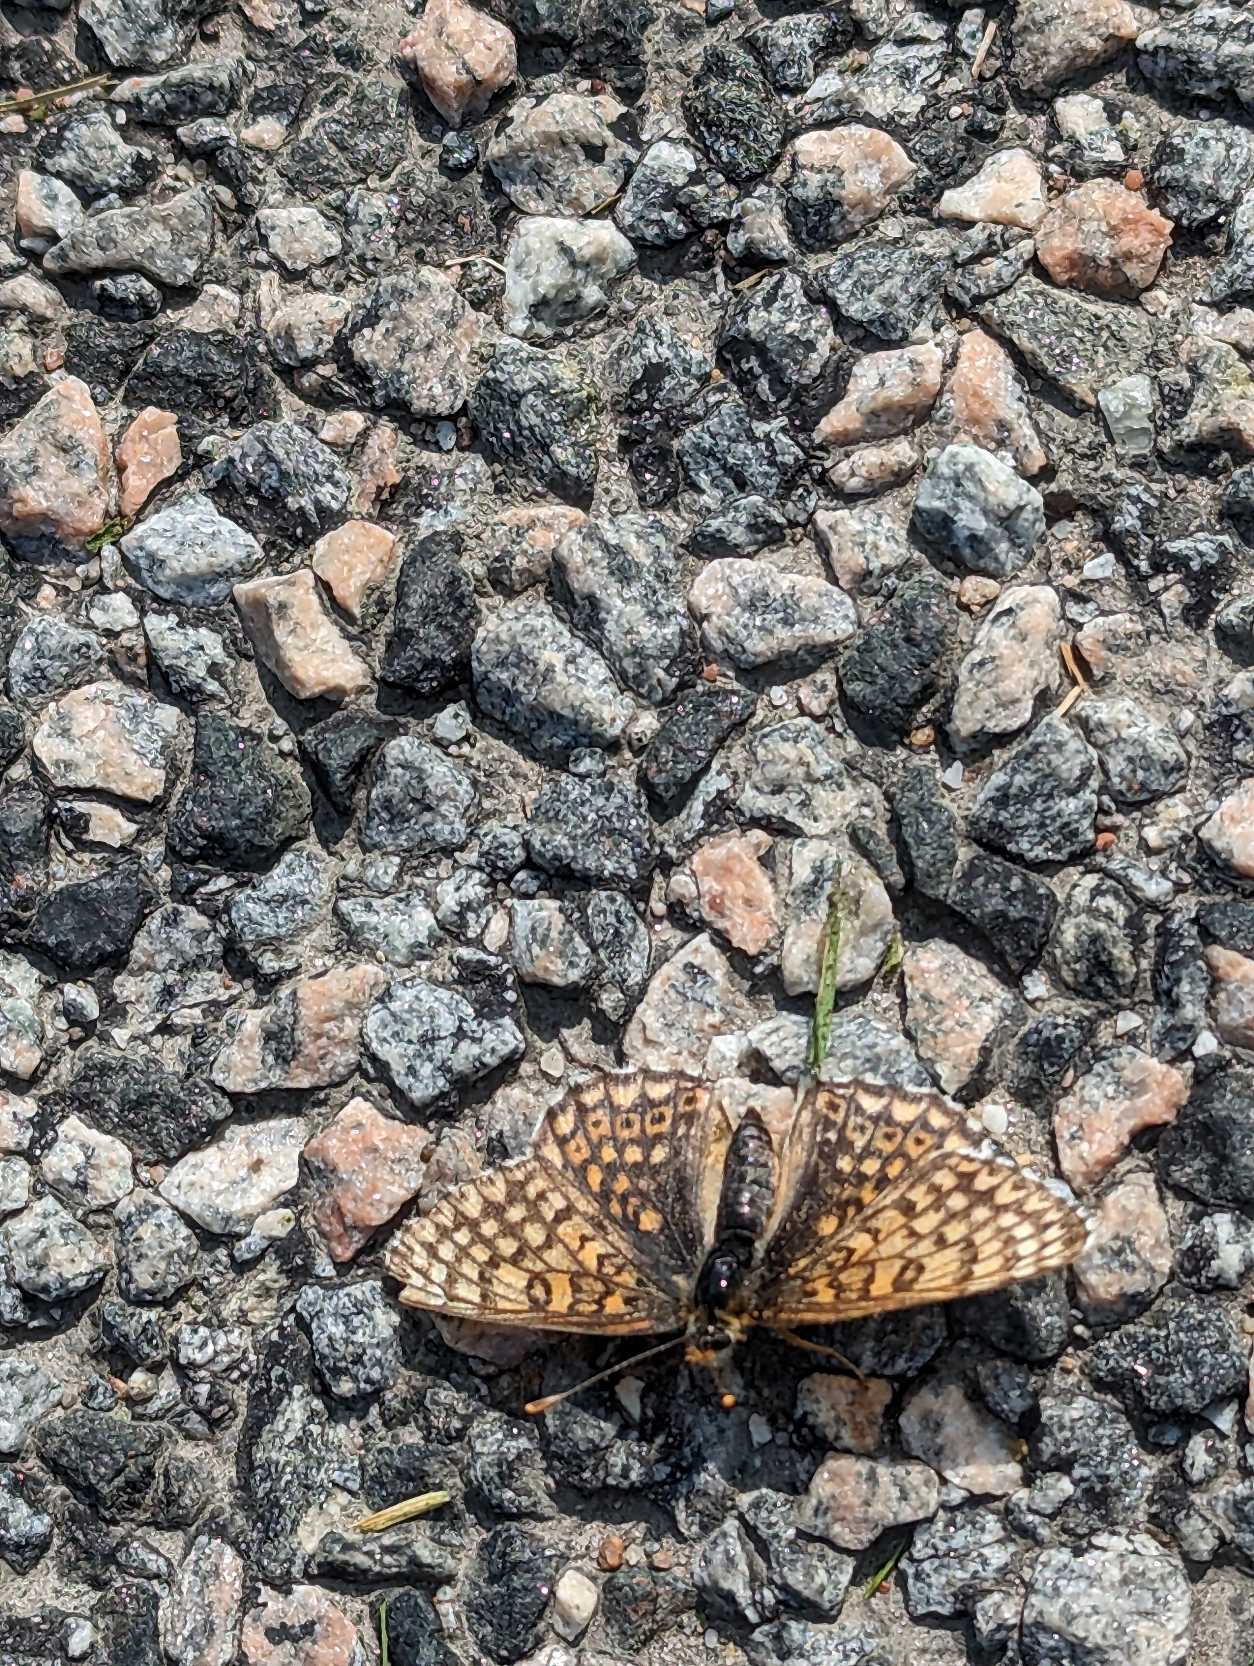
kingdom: Animalia
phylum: Arthropoda
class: Insecta
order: Lepidoptera
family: Nymphalidae
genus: Melitaea
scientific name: Melitaea cinxia
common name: Okkergul pletvinge
